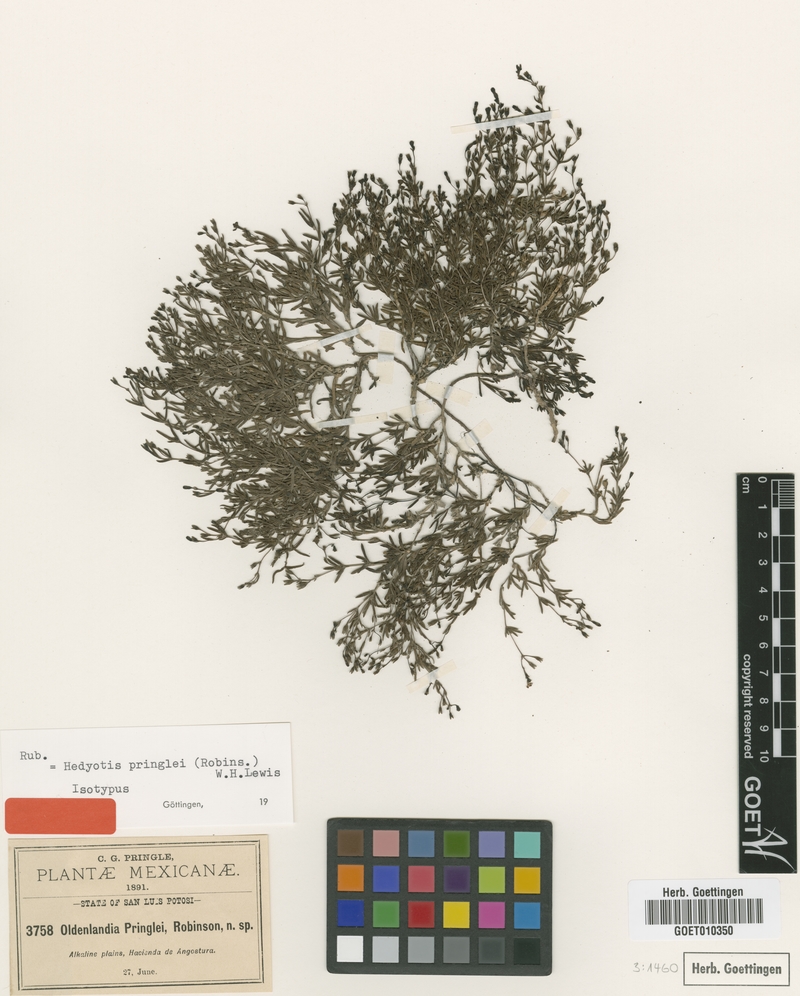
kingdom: Plantae
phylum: Tracheophyta
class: Magnoliopsida
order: Gentianales
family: Rubiaceae
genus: Oldenlandia
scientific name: Oldenlandia pringlei
